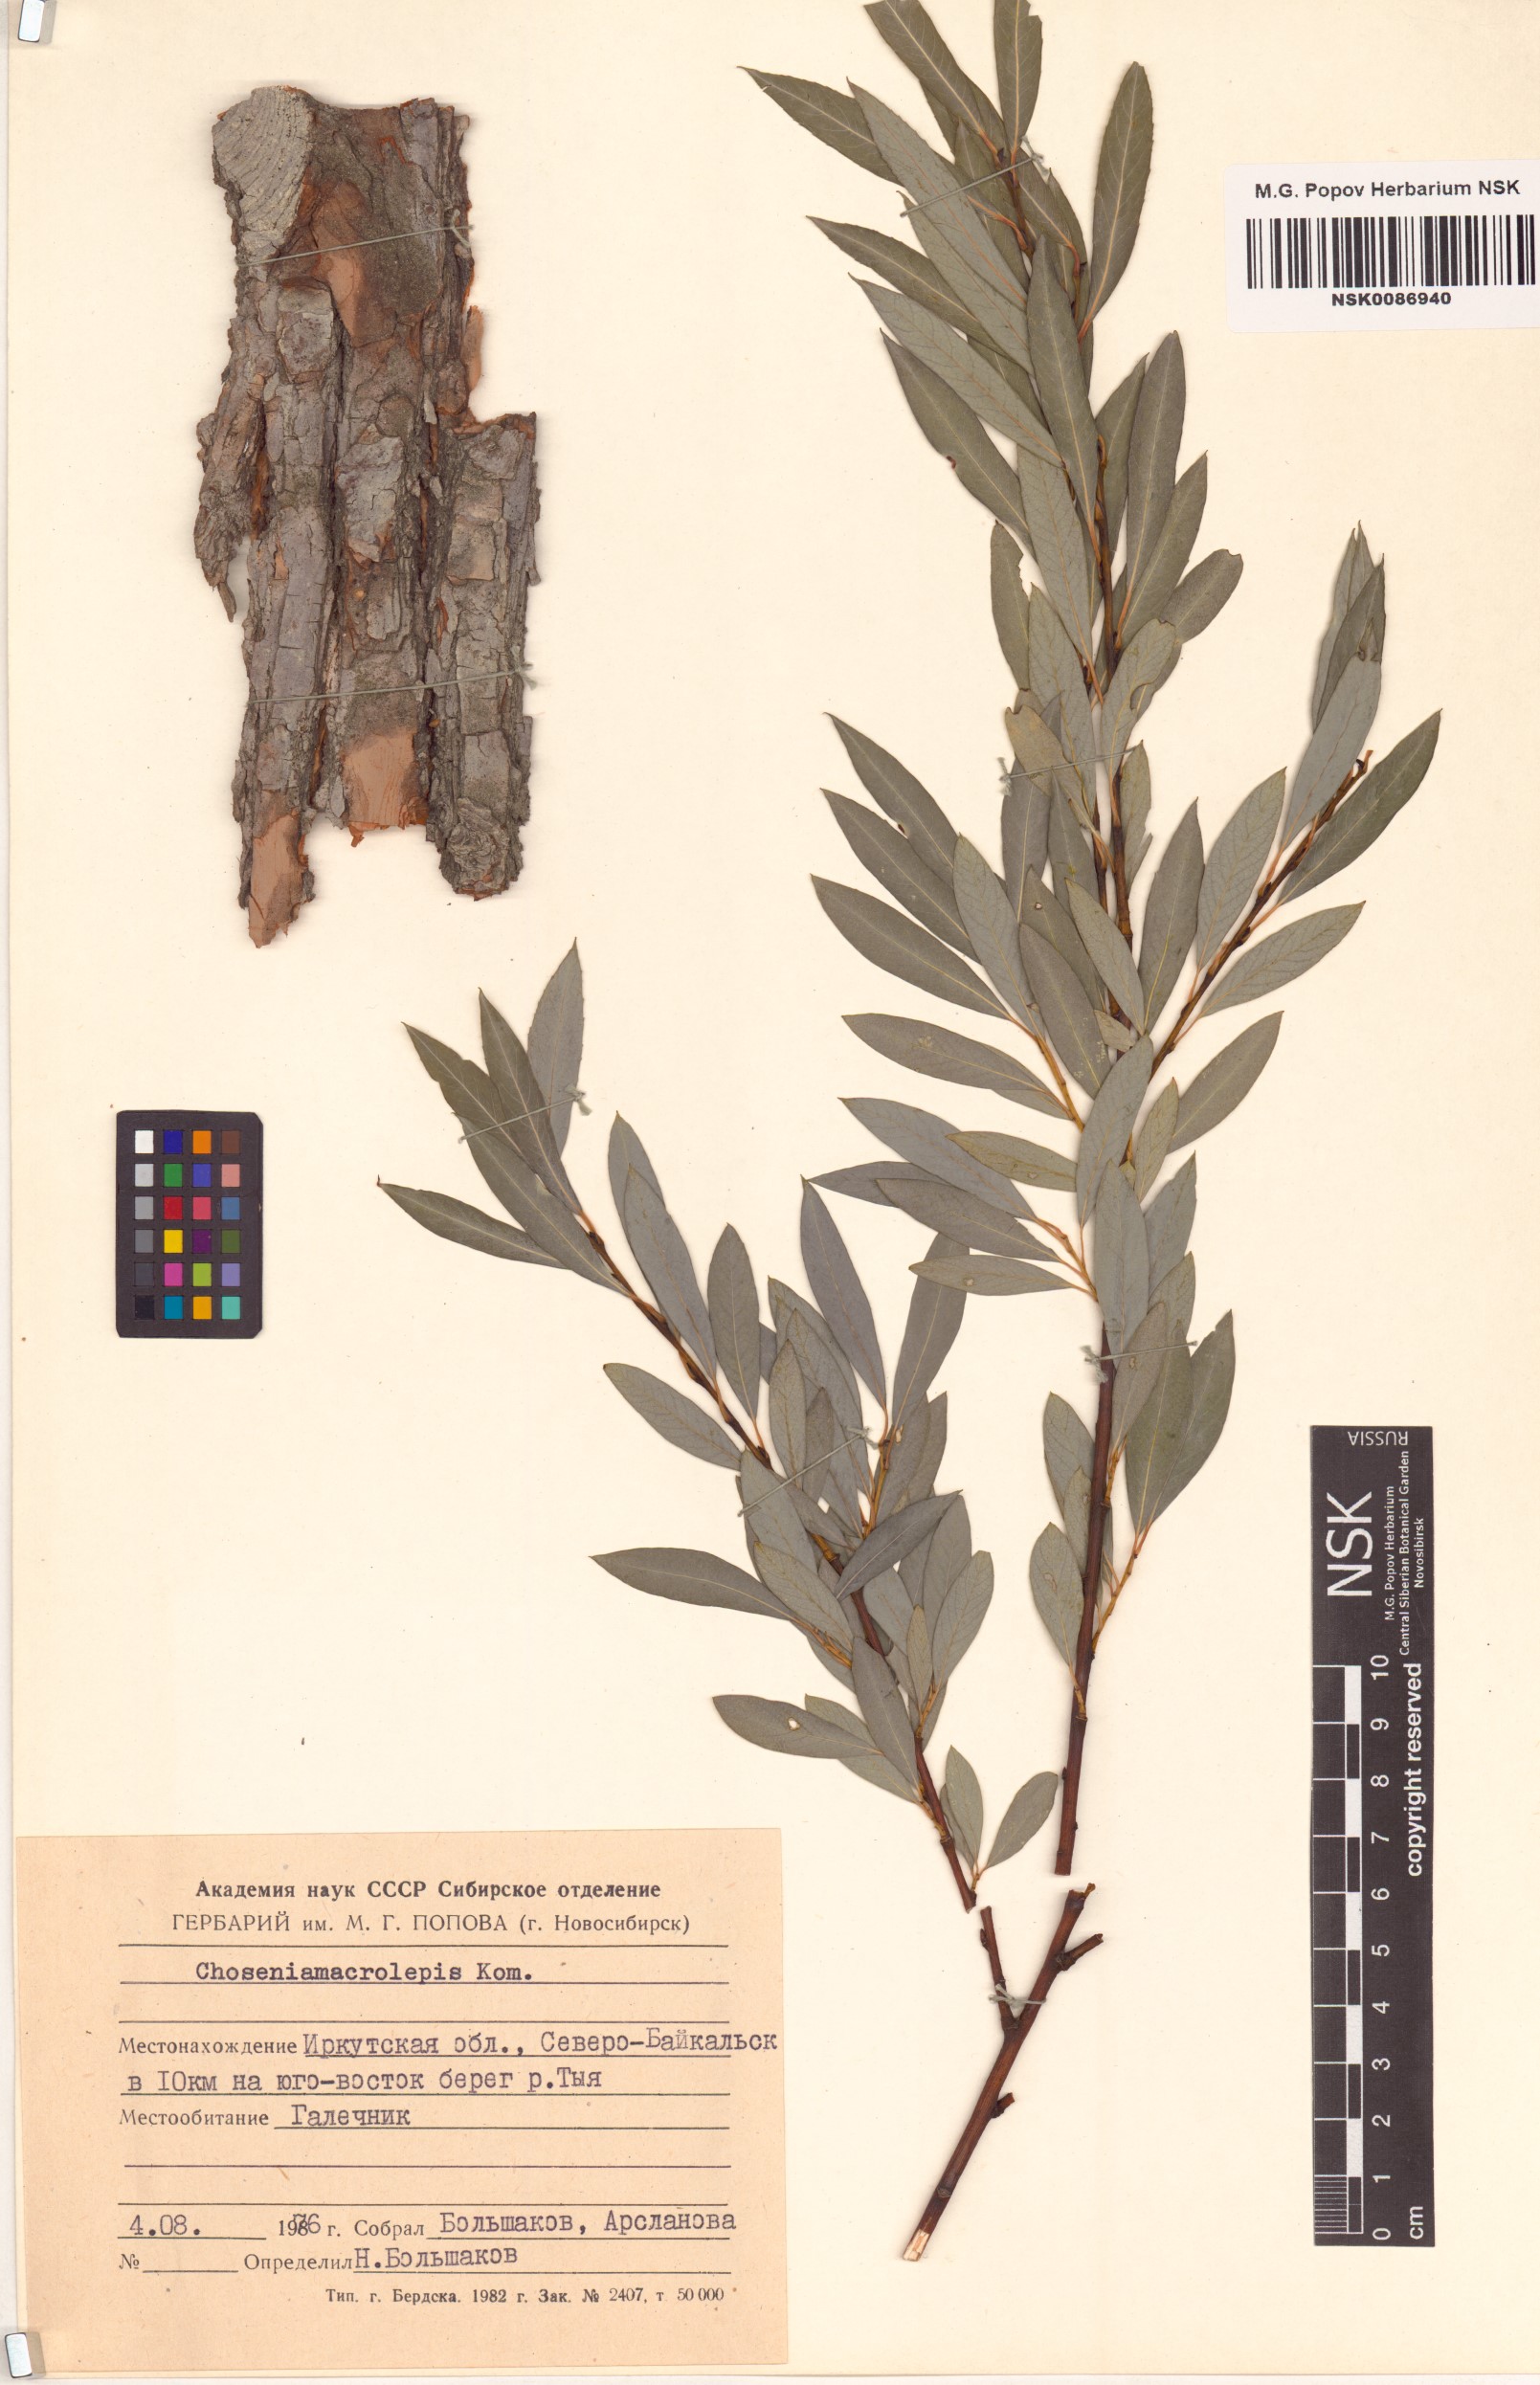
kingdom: Plantae
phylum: Tracheophyta
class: Magnoliopsida
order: Malpighiales
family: Salicaceae
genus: Chosenia
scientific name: Chosenia arbutifolia
